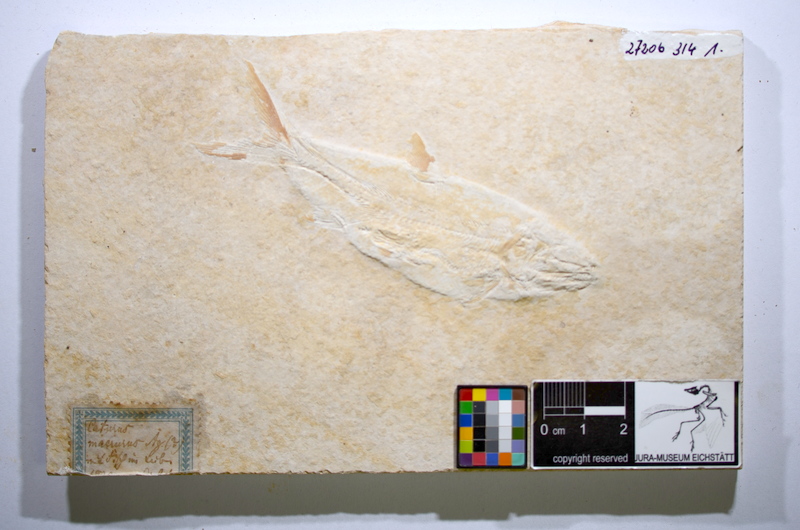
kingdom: Animalia
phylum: Chordata
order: Amiiformes
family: Caturidae
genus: Caturus
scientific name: Caturus furcatus
